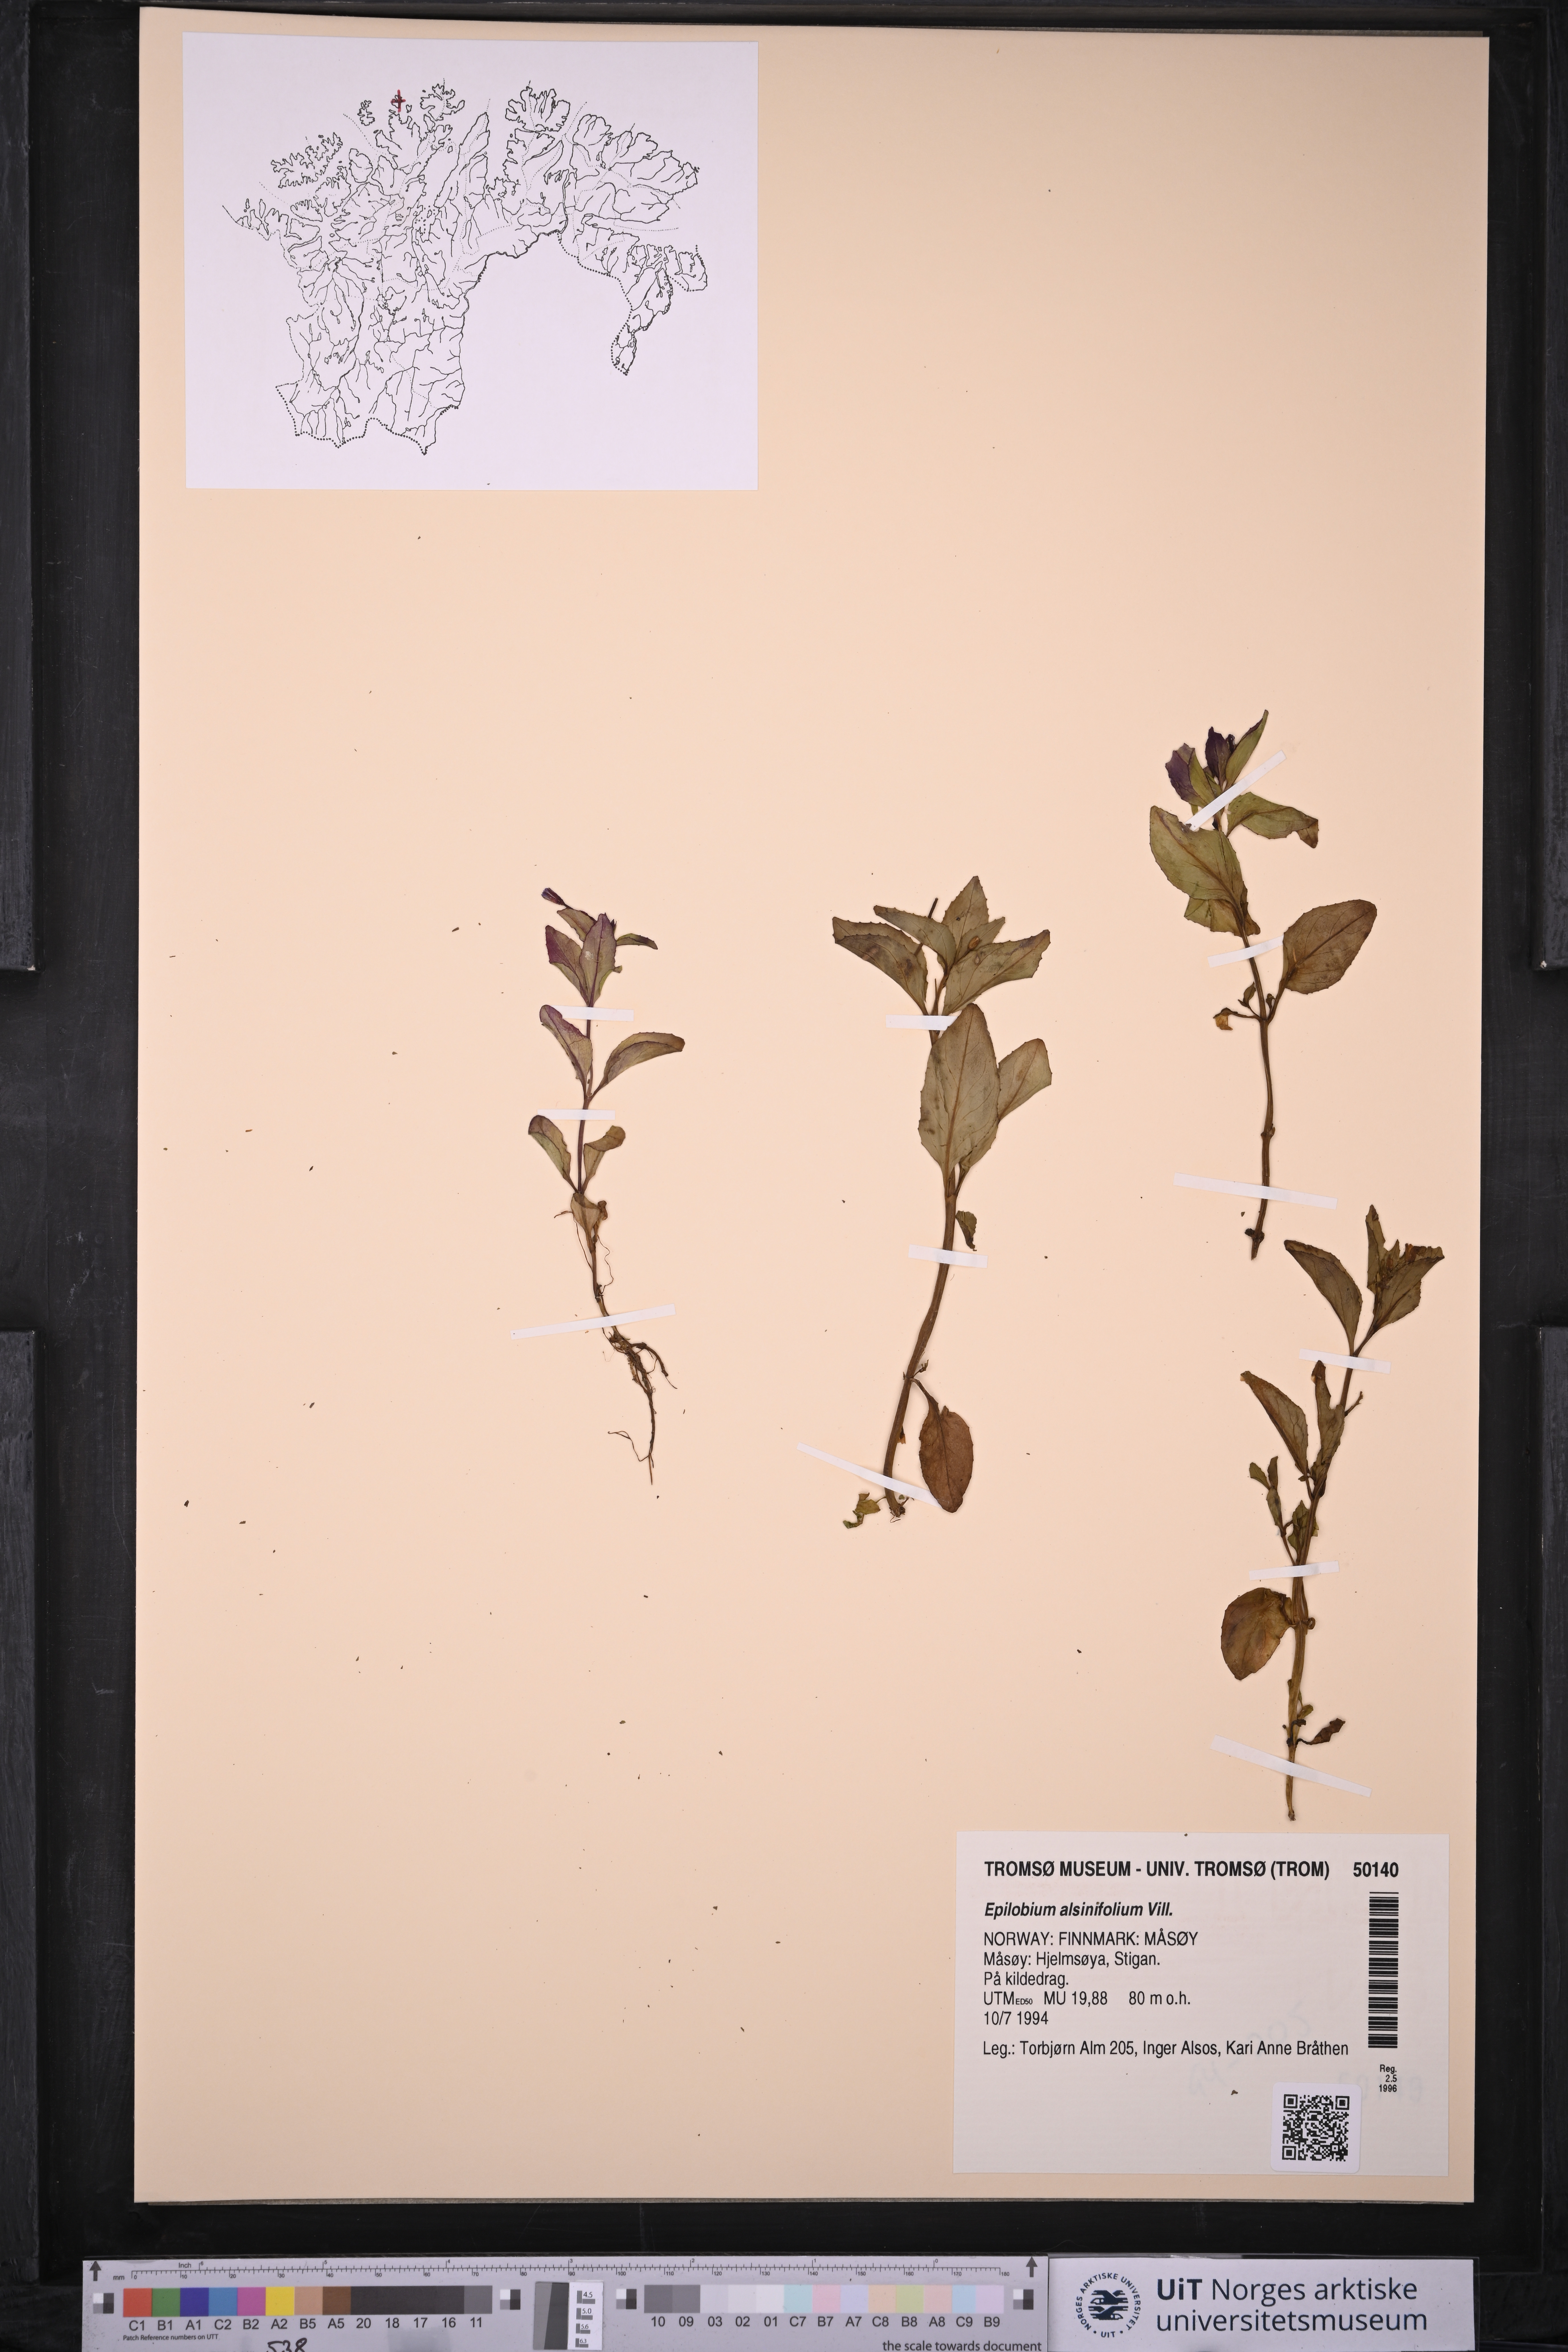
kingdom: Plantae
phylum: Tracheophyta
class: Magnoliopsida
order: Myrtales
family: Onagraceae
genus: Epilobium
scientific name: Epilobium alsinifolium
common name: Chickweed willowherb
